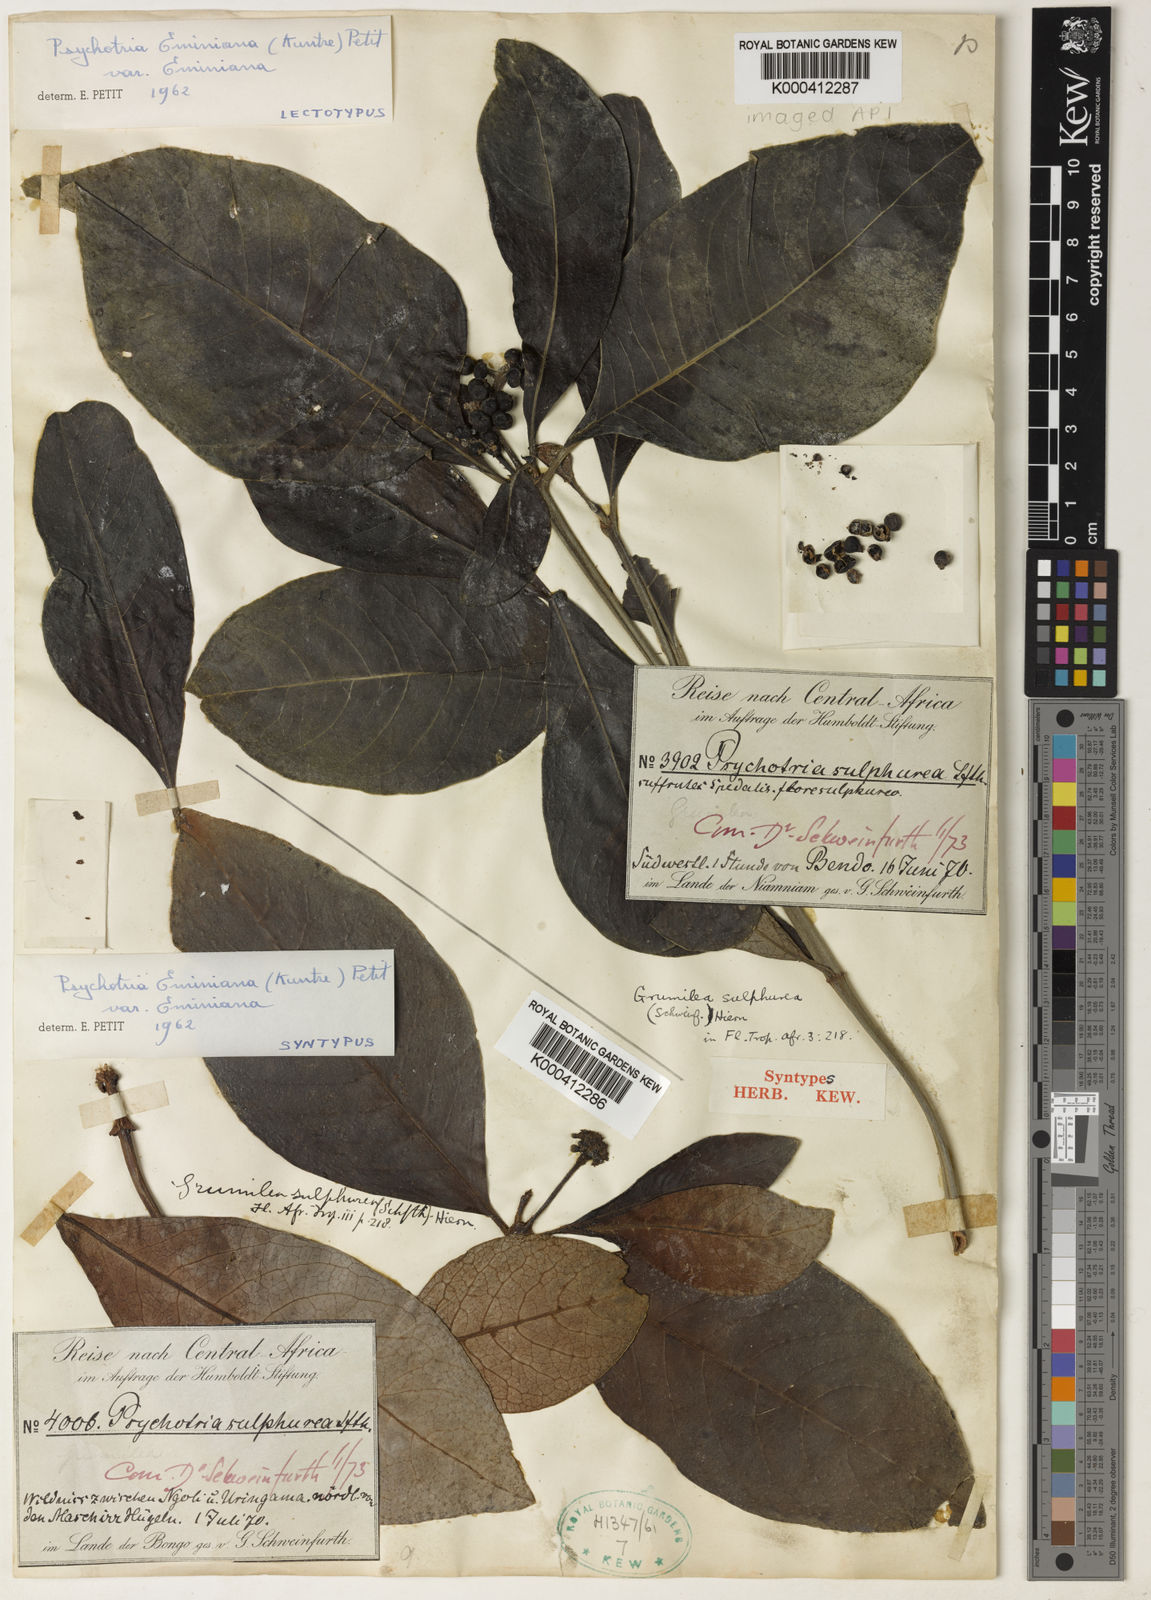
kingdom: Plantae
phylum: Tracheophyta
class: Magnoliopsida
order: Gentianales
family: Rubiaceae
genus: Psychotria
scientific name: Psychotria eminiana
